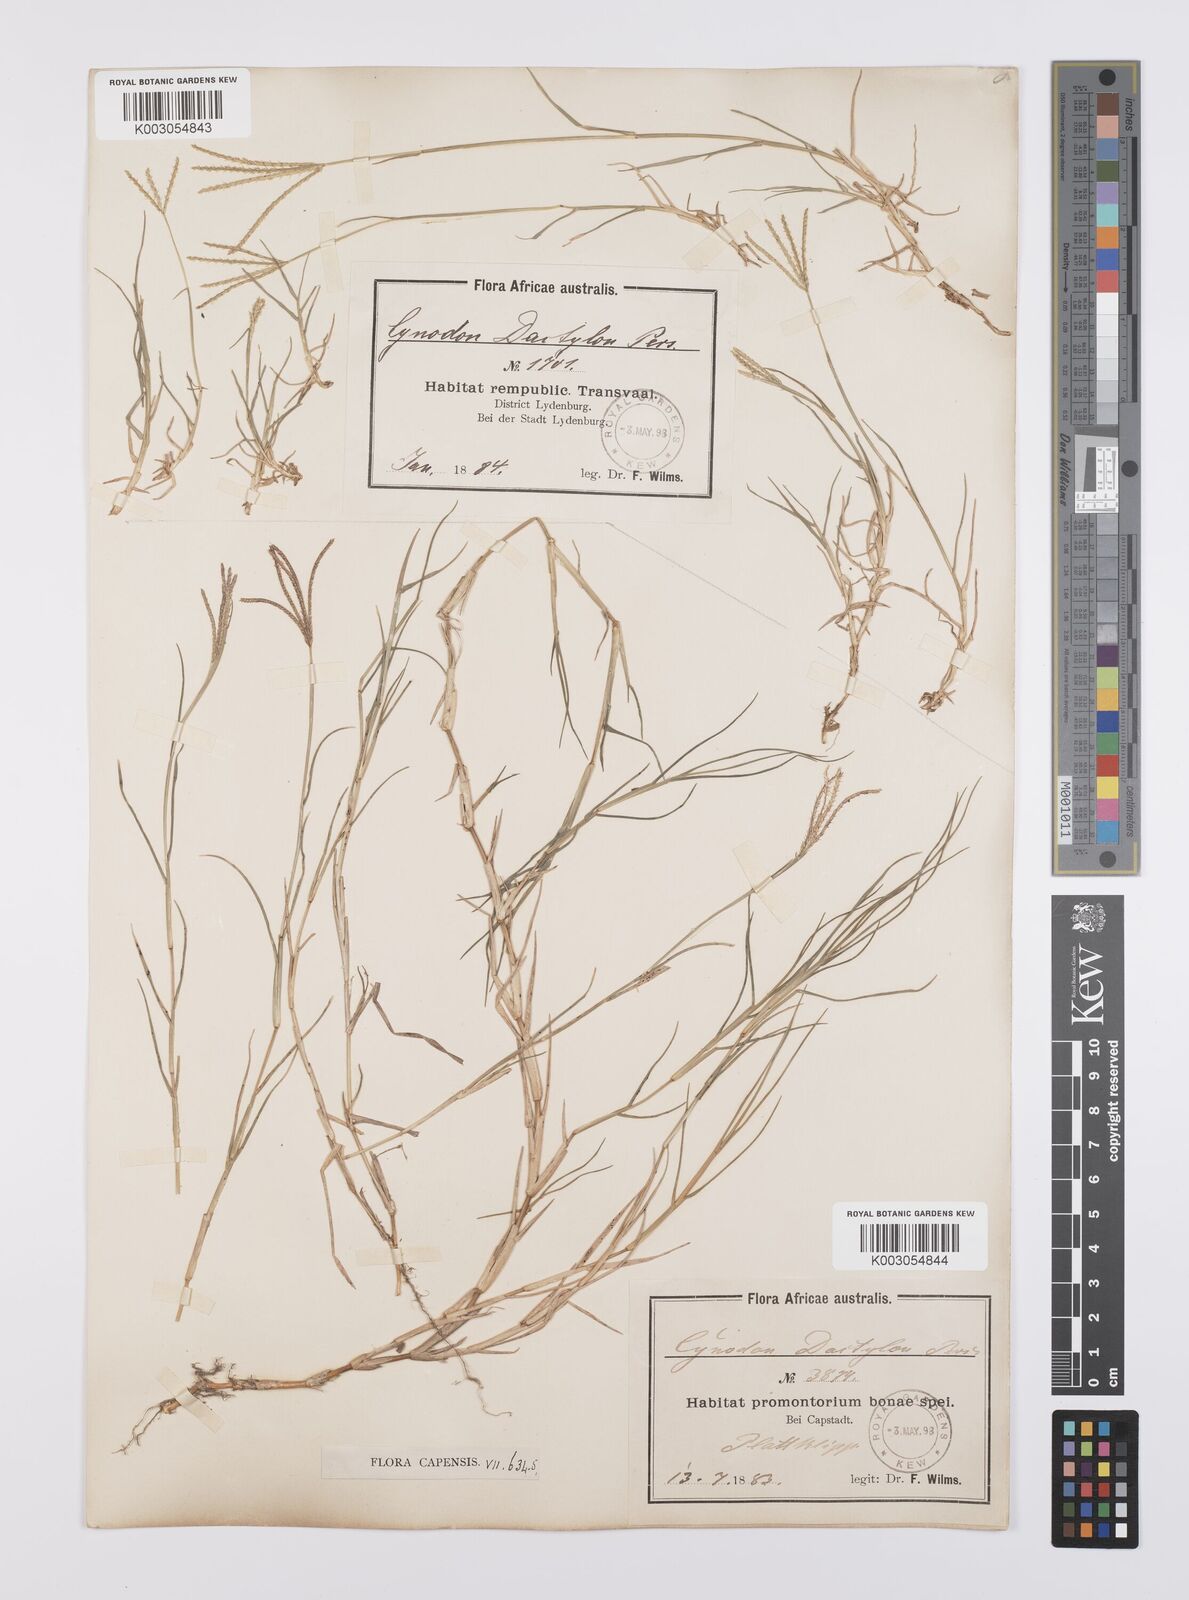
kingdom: Plantae
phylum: Tracheophyta
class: Liliopsida
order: Poales
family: Poaceae
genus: Cynodon
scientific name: Cynodon dactylon
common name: Bermuda grass
